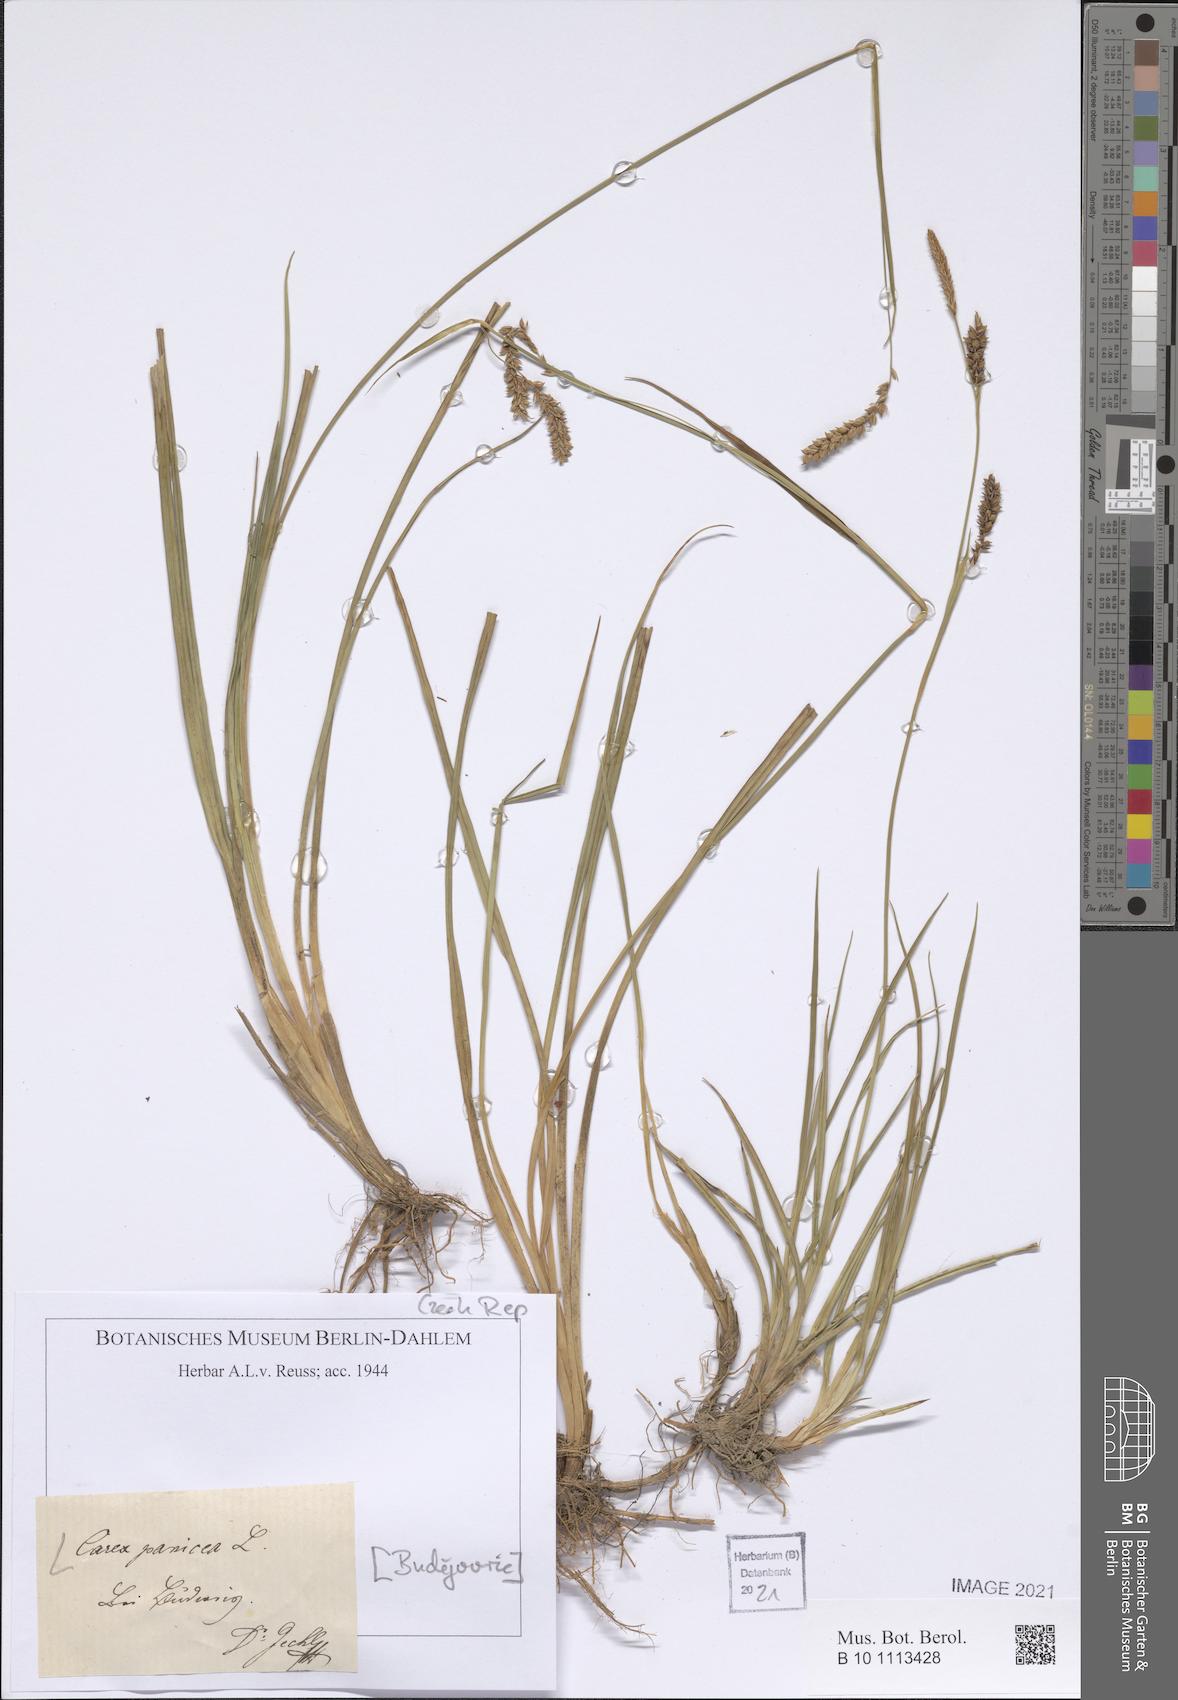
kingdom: Plantae
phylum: Tracheophyta
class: Liliopsida
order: Poales
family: Cyperaceae
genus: Carex
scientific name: Carex panicea
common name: Carnation sedge
